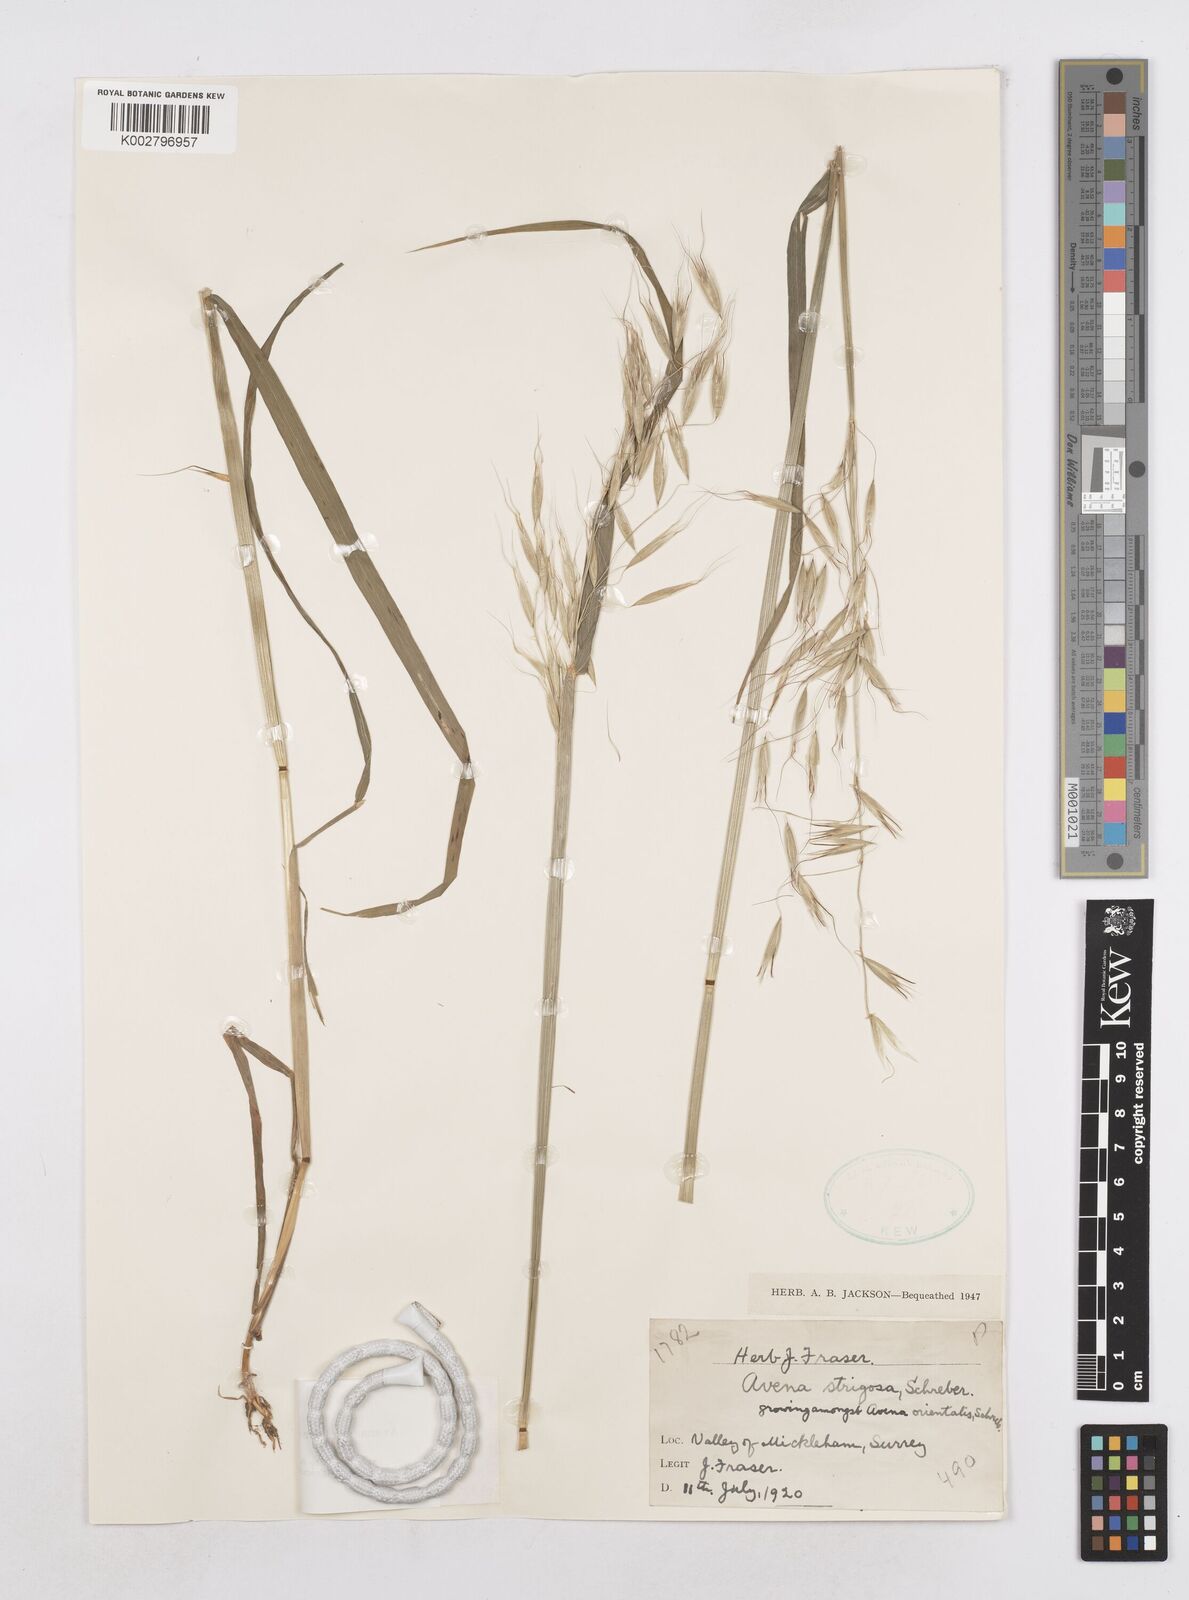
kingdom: Plantae
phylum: Tracheophyta
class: Liliopsida
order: Poales
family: Poaceae
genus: Avena
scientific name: Avena strigosa
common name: Bristle oat
